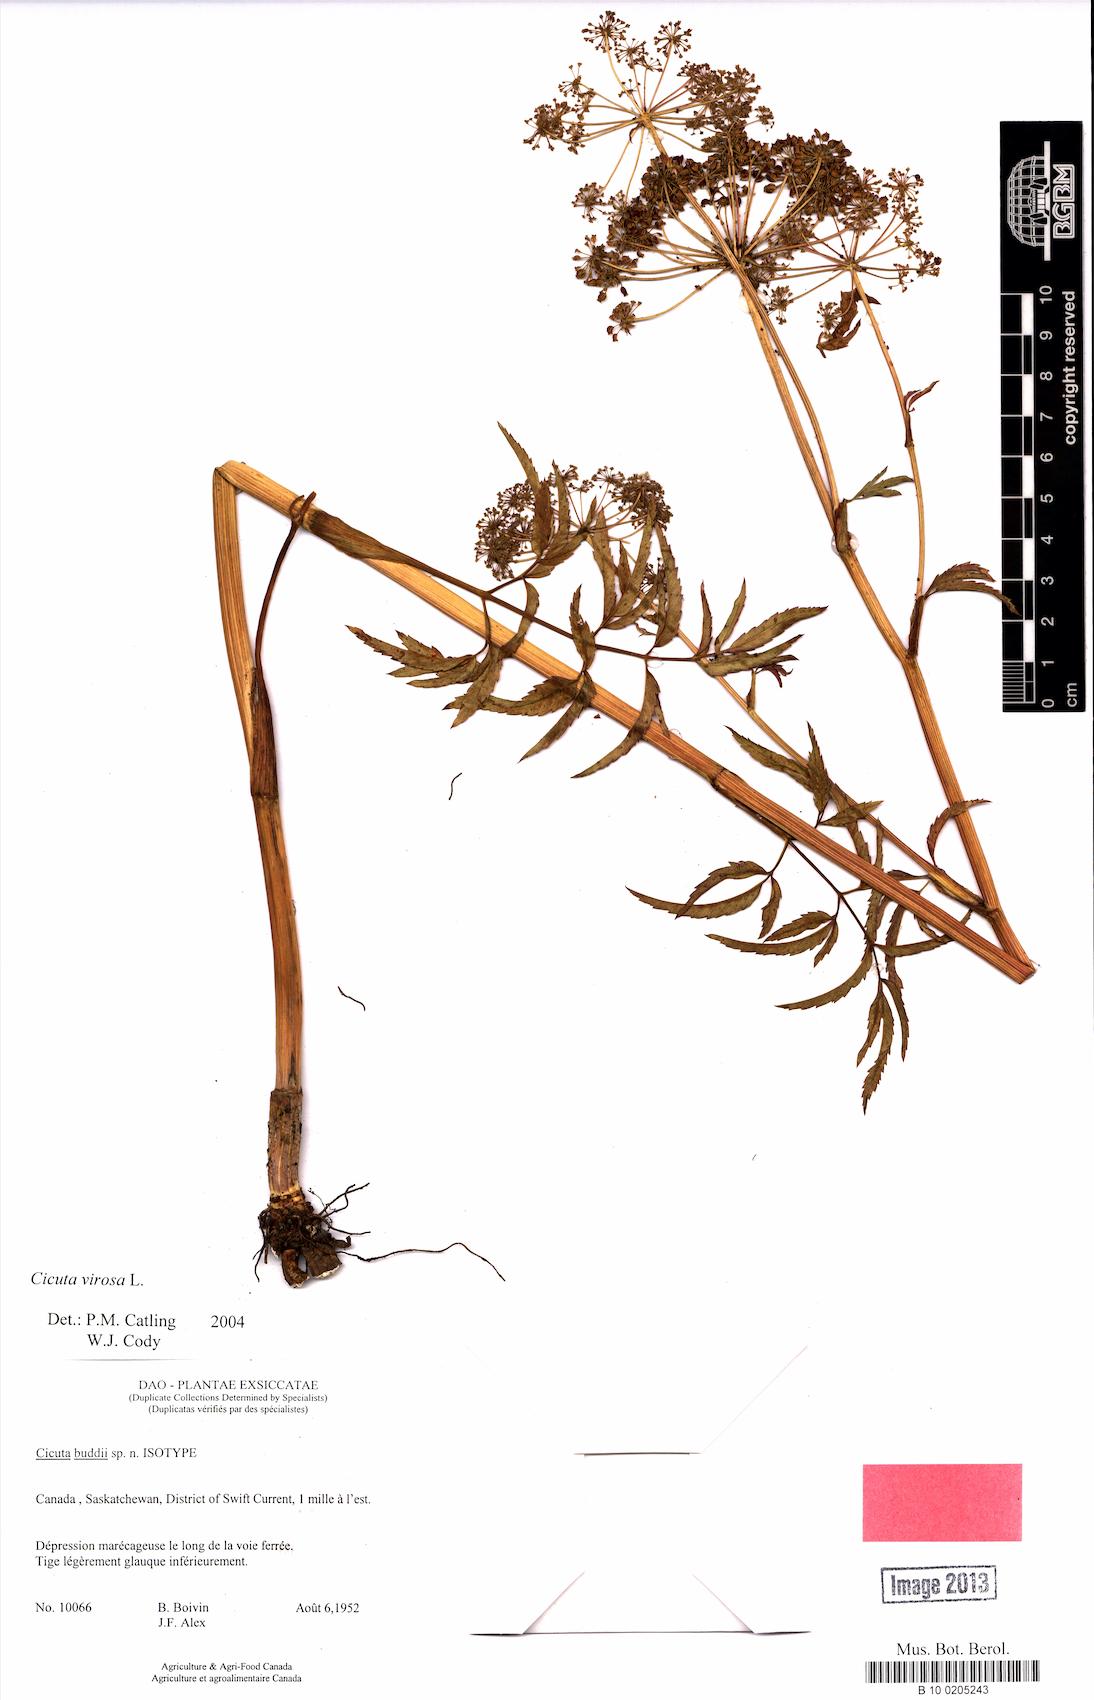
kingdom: Plantae
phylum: Tracheophyta
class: Magnoliopsida
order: Apiales
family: Apiaceae
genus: Cicuta
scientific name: Cicuta virosa
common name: Cowbane
